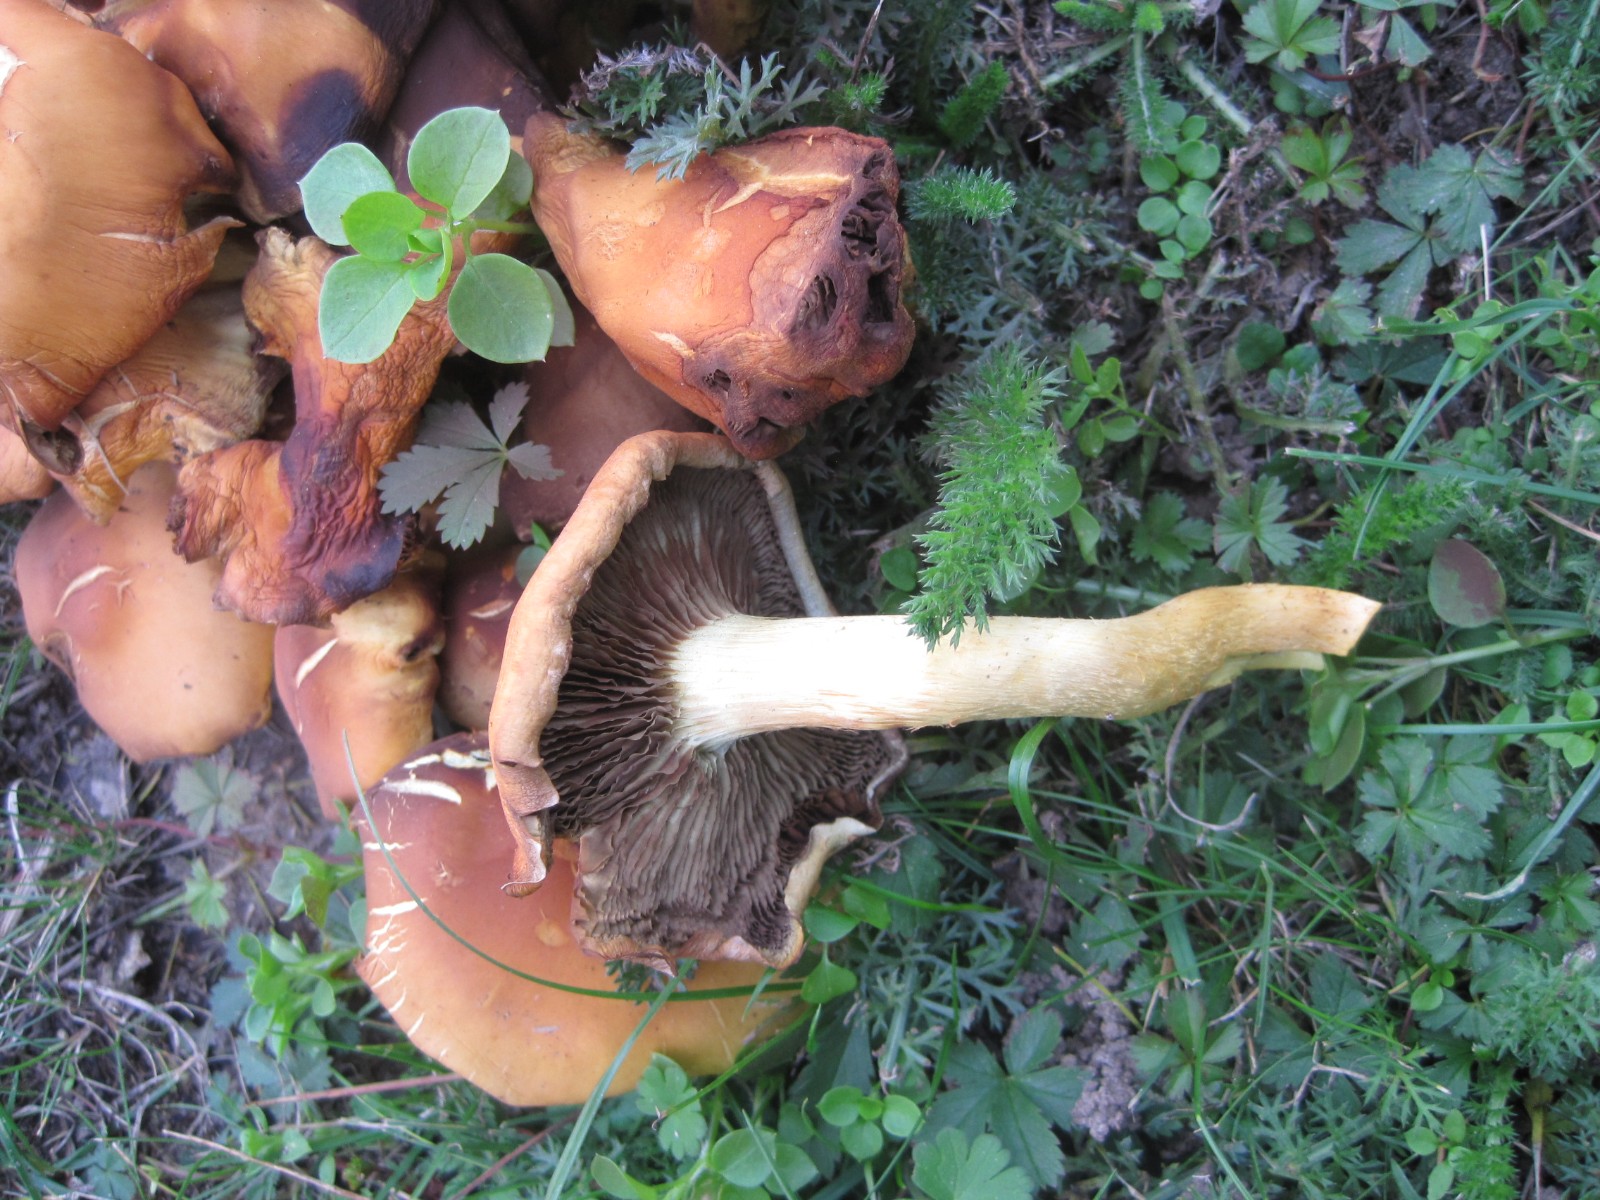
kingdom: Fungi
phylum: Basidiomycota
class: Agaricomycetes
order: Agaricales
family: Hymenogastraceae
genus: Gymnopilus
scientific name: Gymnopilus penetrans
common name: plettet flammehat
